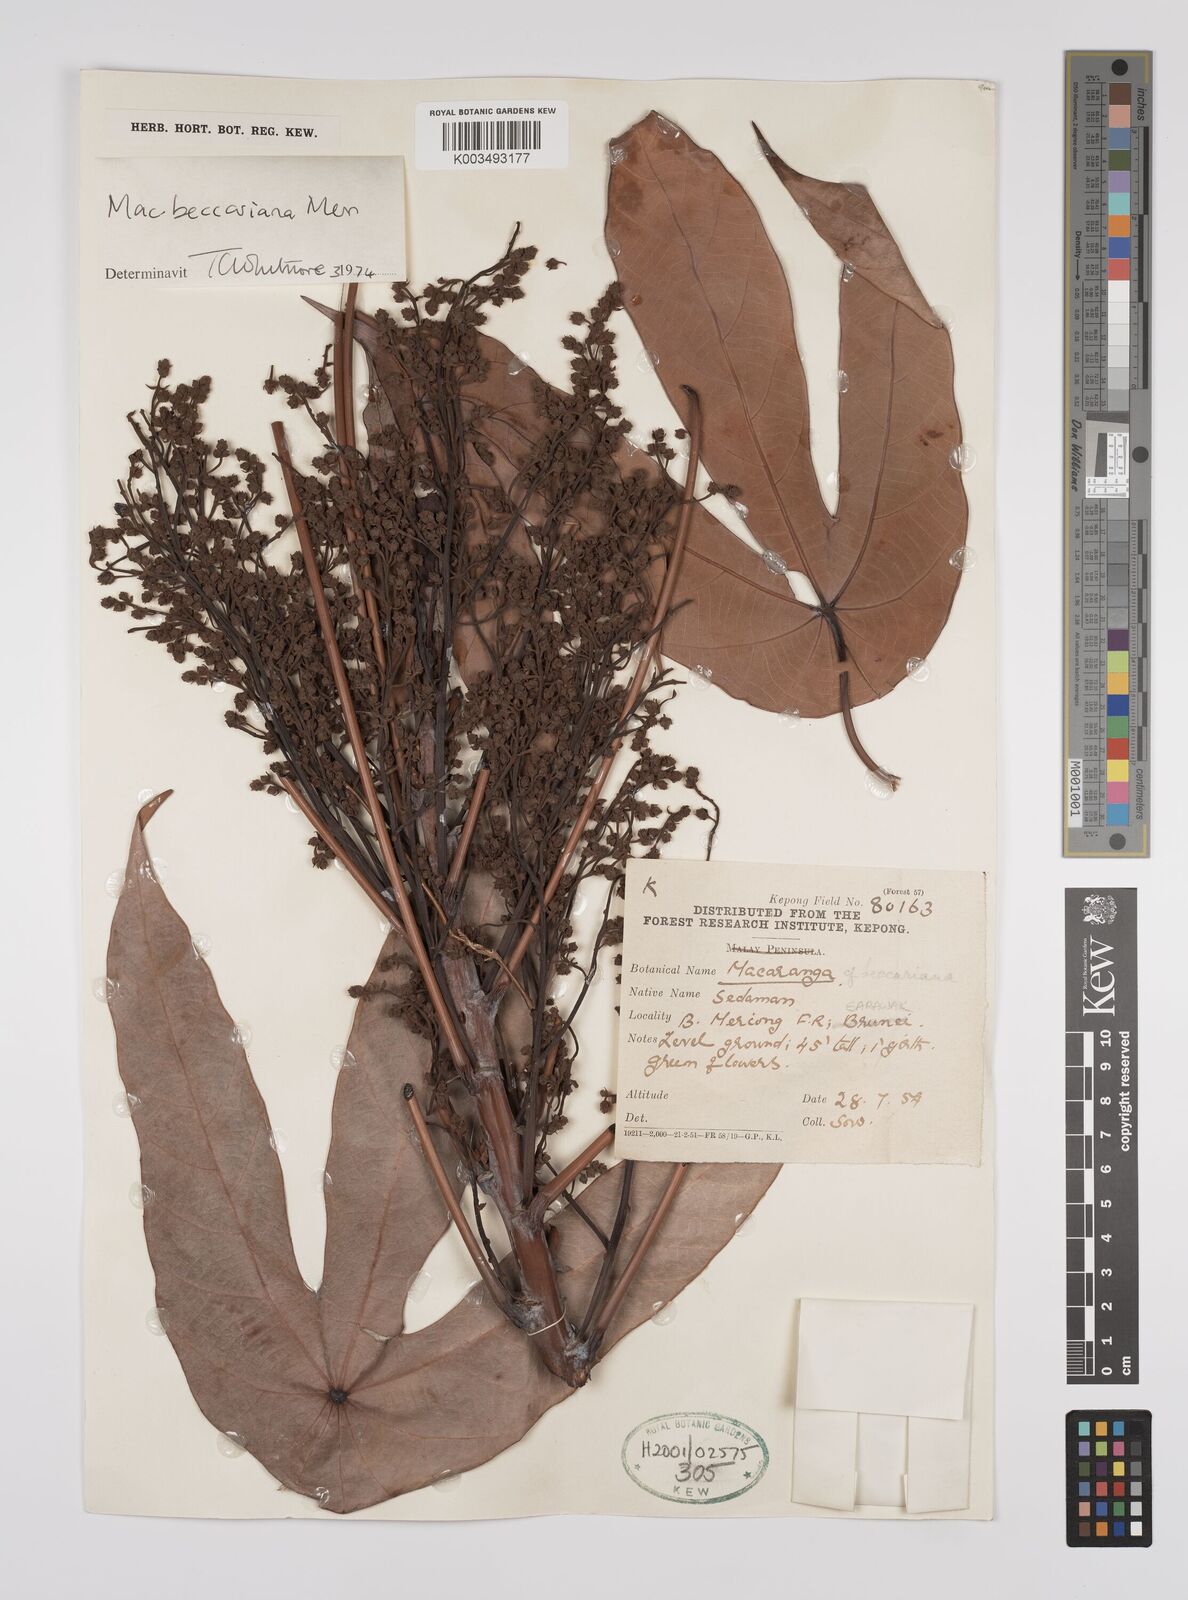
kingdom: Plantae
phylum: Tracheophyta
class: Magnoliopsida
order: Malpighiales
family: Euphorbiaceae
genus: Macaranga
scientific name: Macaranga beccariana
